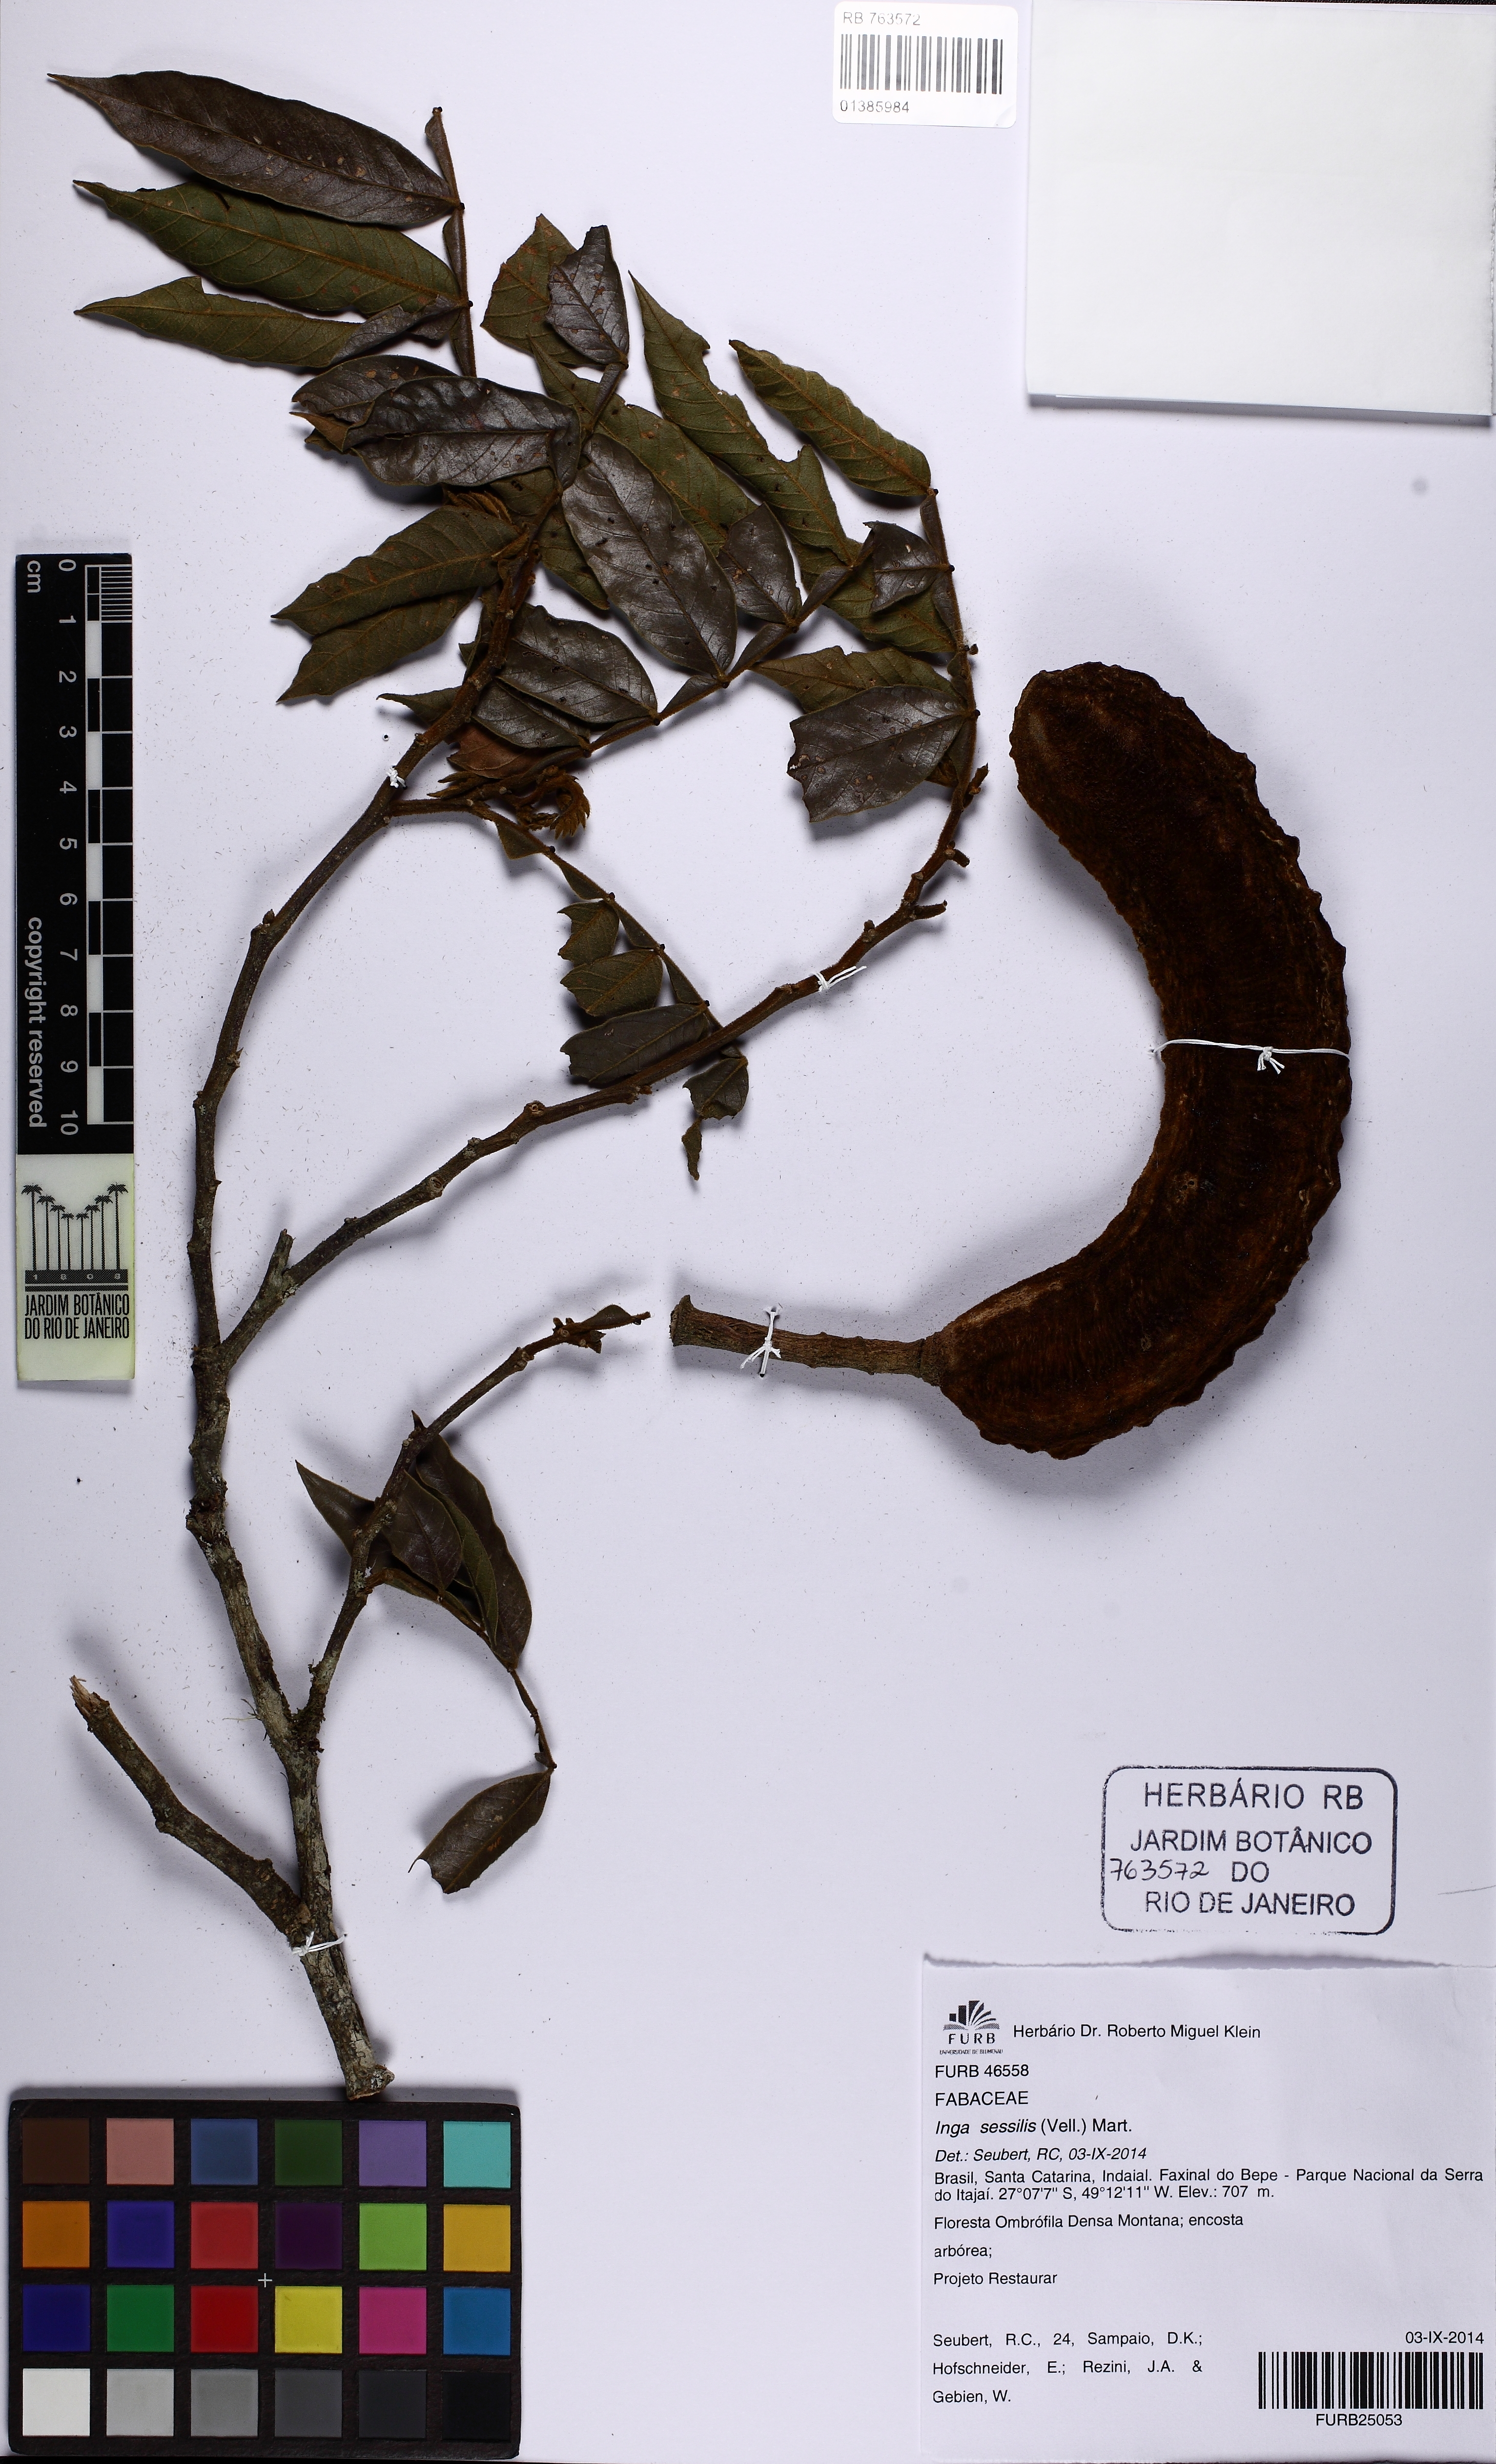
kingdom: Plantae
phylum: Tracheophyta
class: Magnoliopsida
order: Fabales
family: Fabaceae
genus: Inga
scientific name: Inga sessilis
